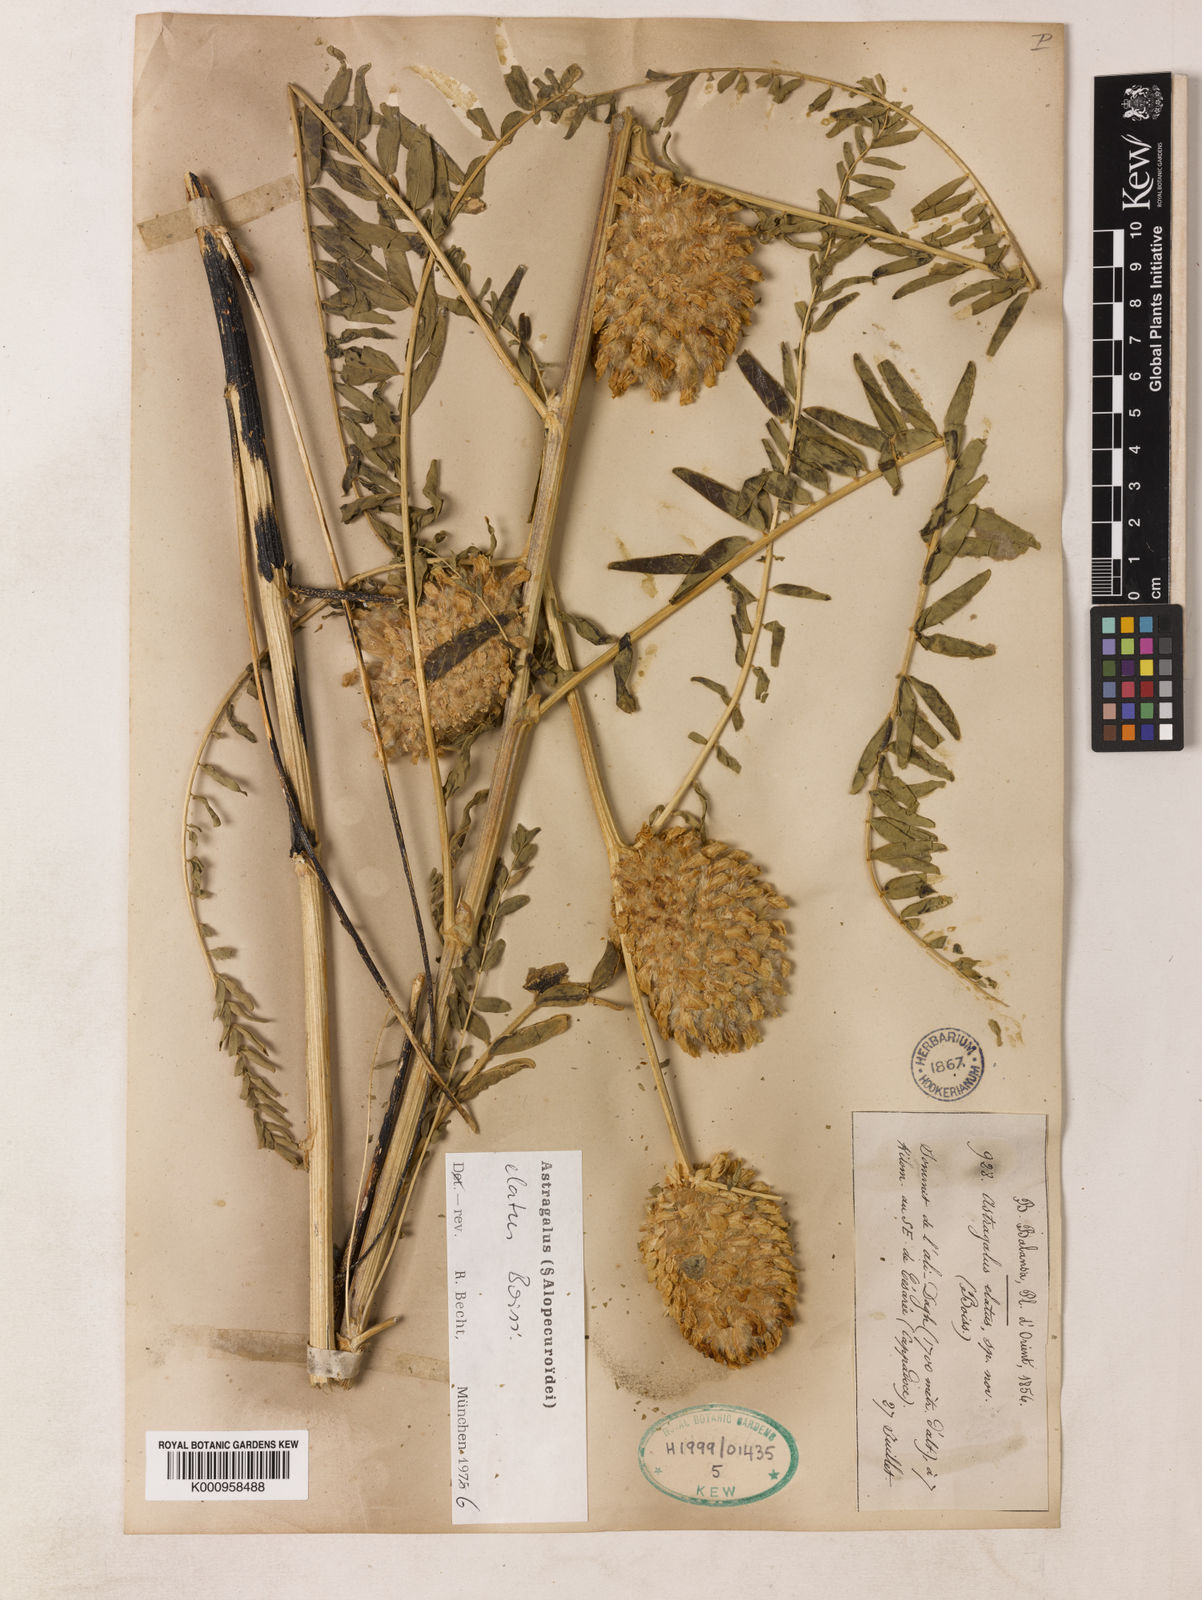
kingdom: Plantae
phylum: Tracheophyta
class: Magnoliopsida
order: Fabales
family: Fabaceae
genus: Astragalus
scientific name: Astragalus
